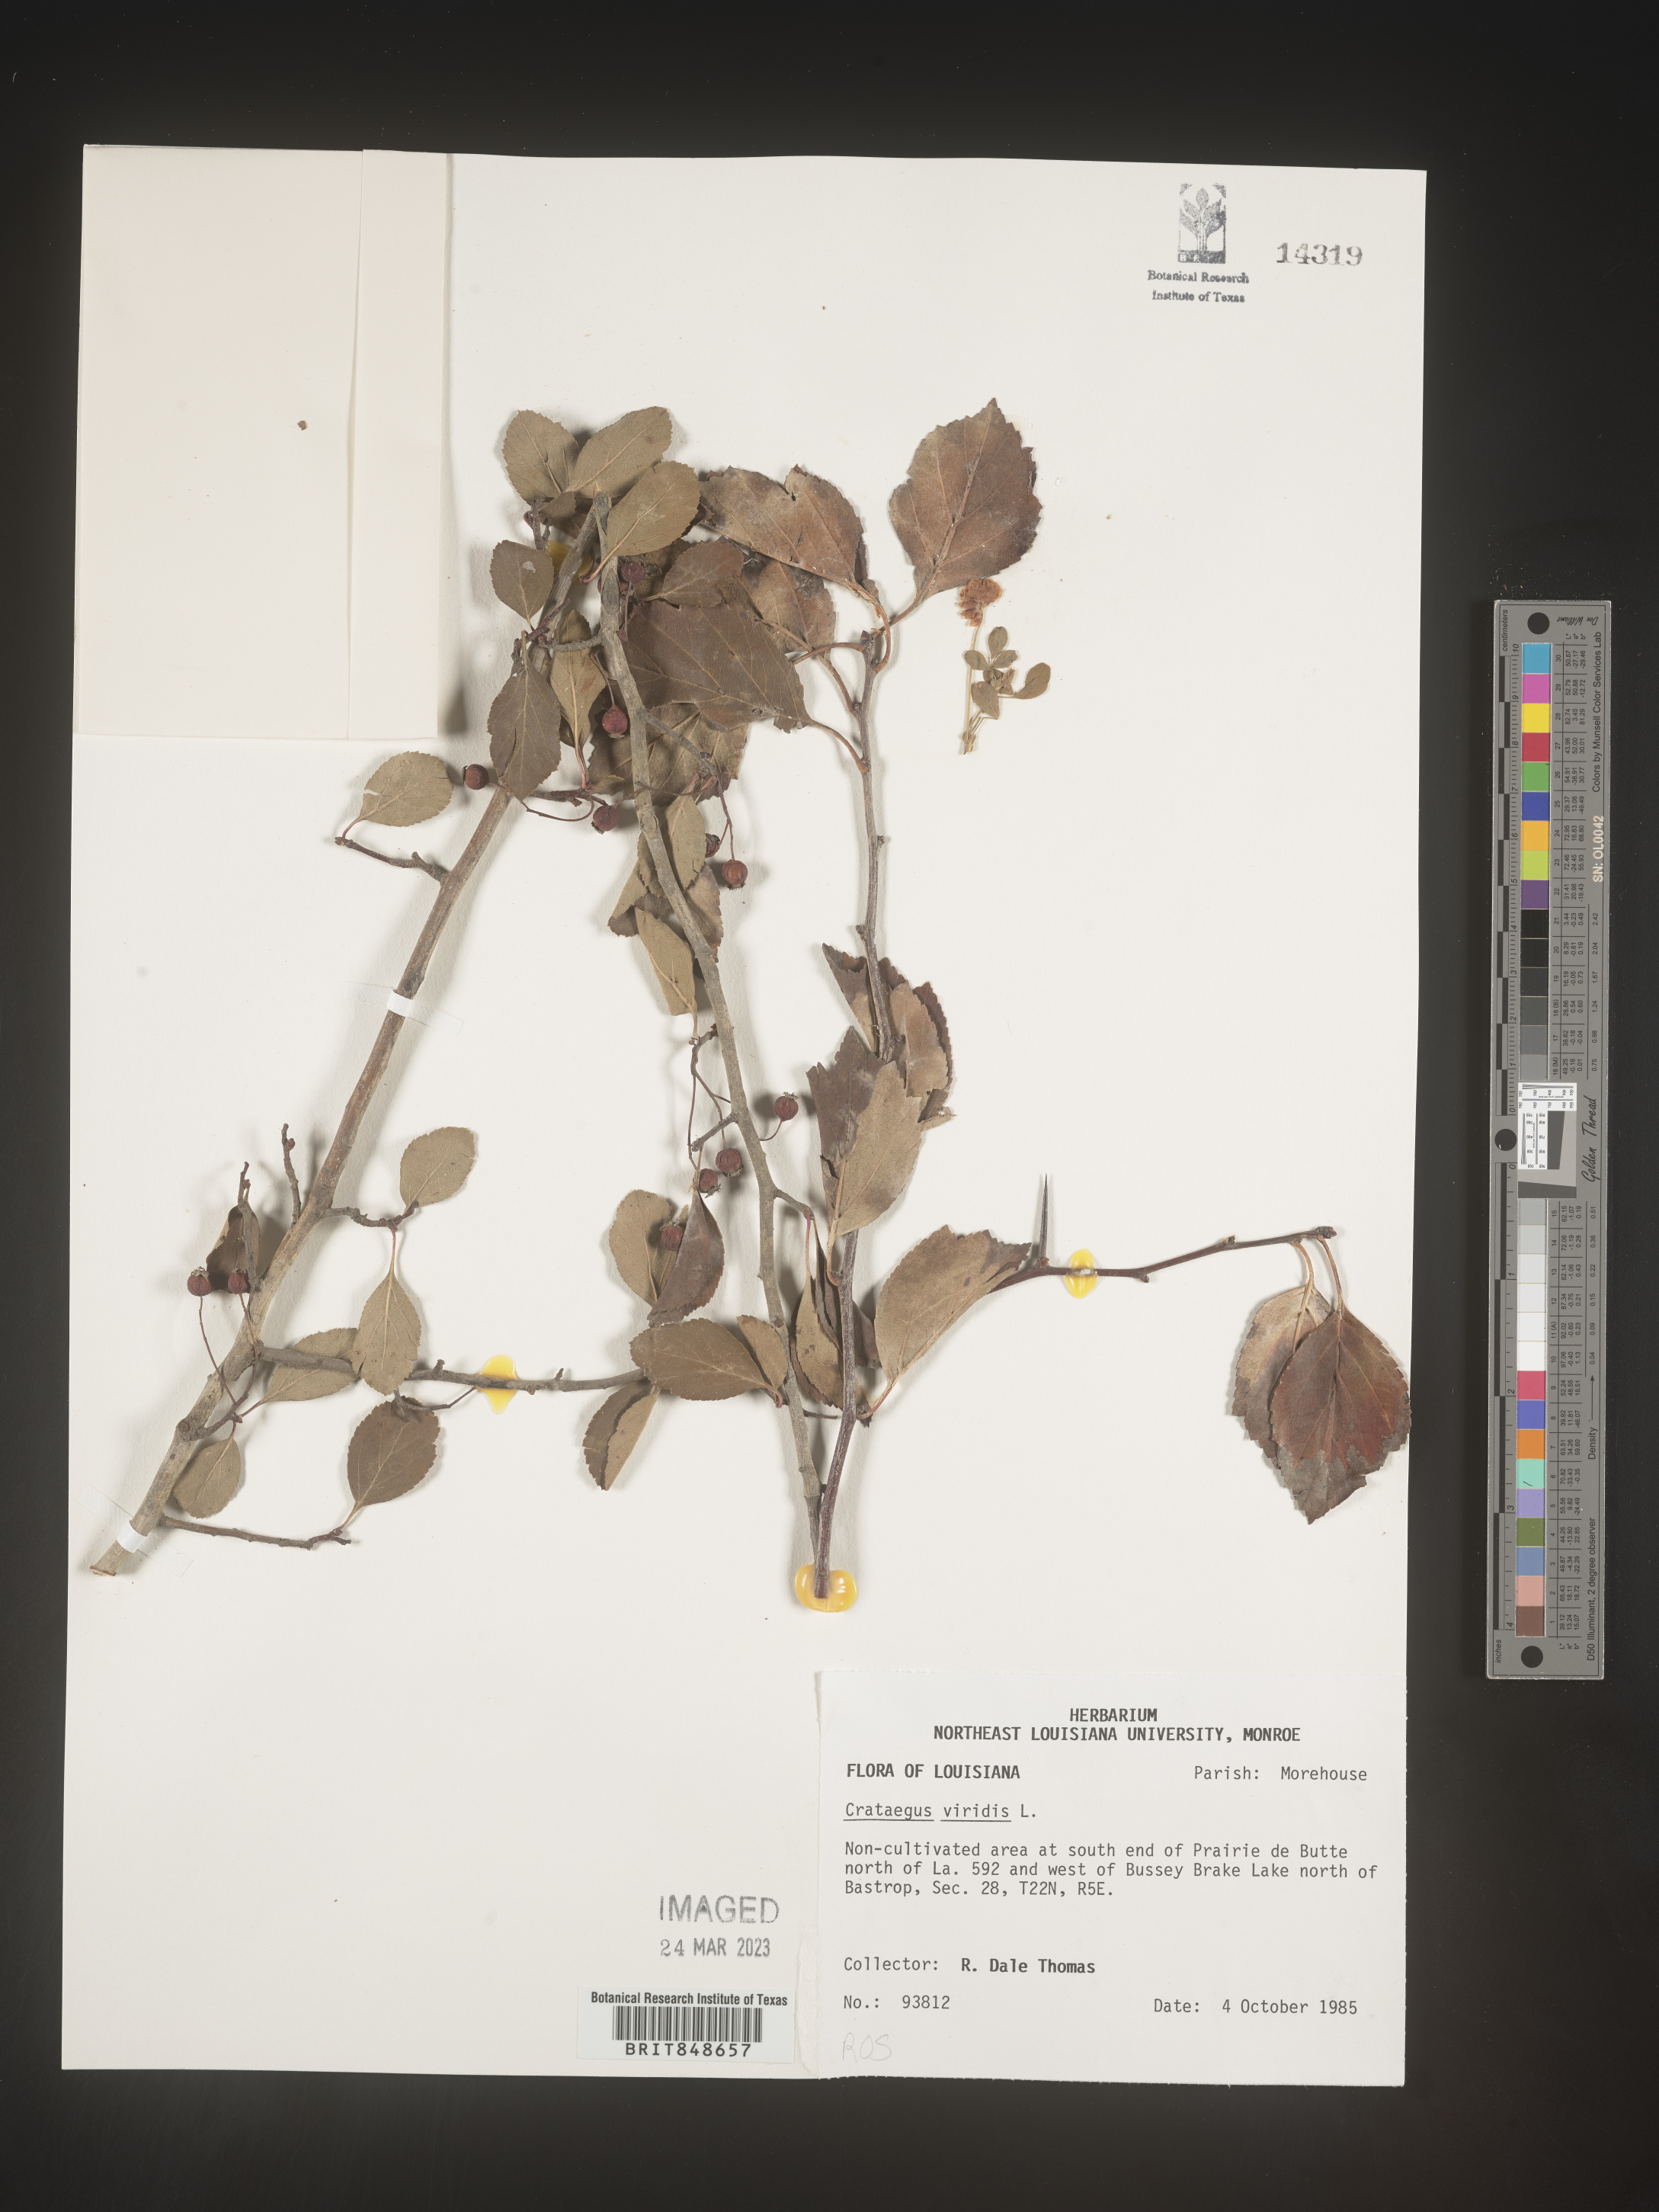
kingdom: Plantae
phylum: Tracheophyta
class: Magnoliopsida
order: Rosales
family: Rosaceae
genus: Crataegus
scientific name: Crataegus viridis
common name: Southernthorn
